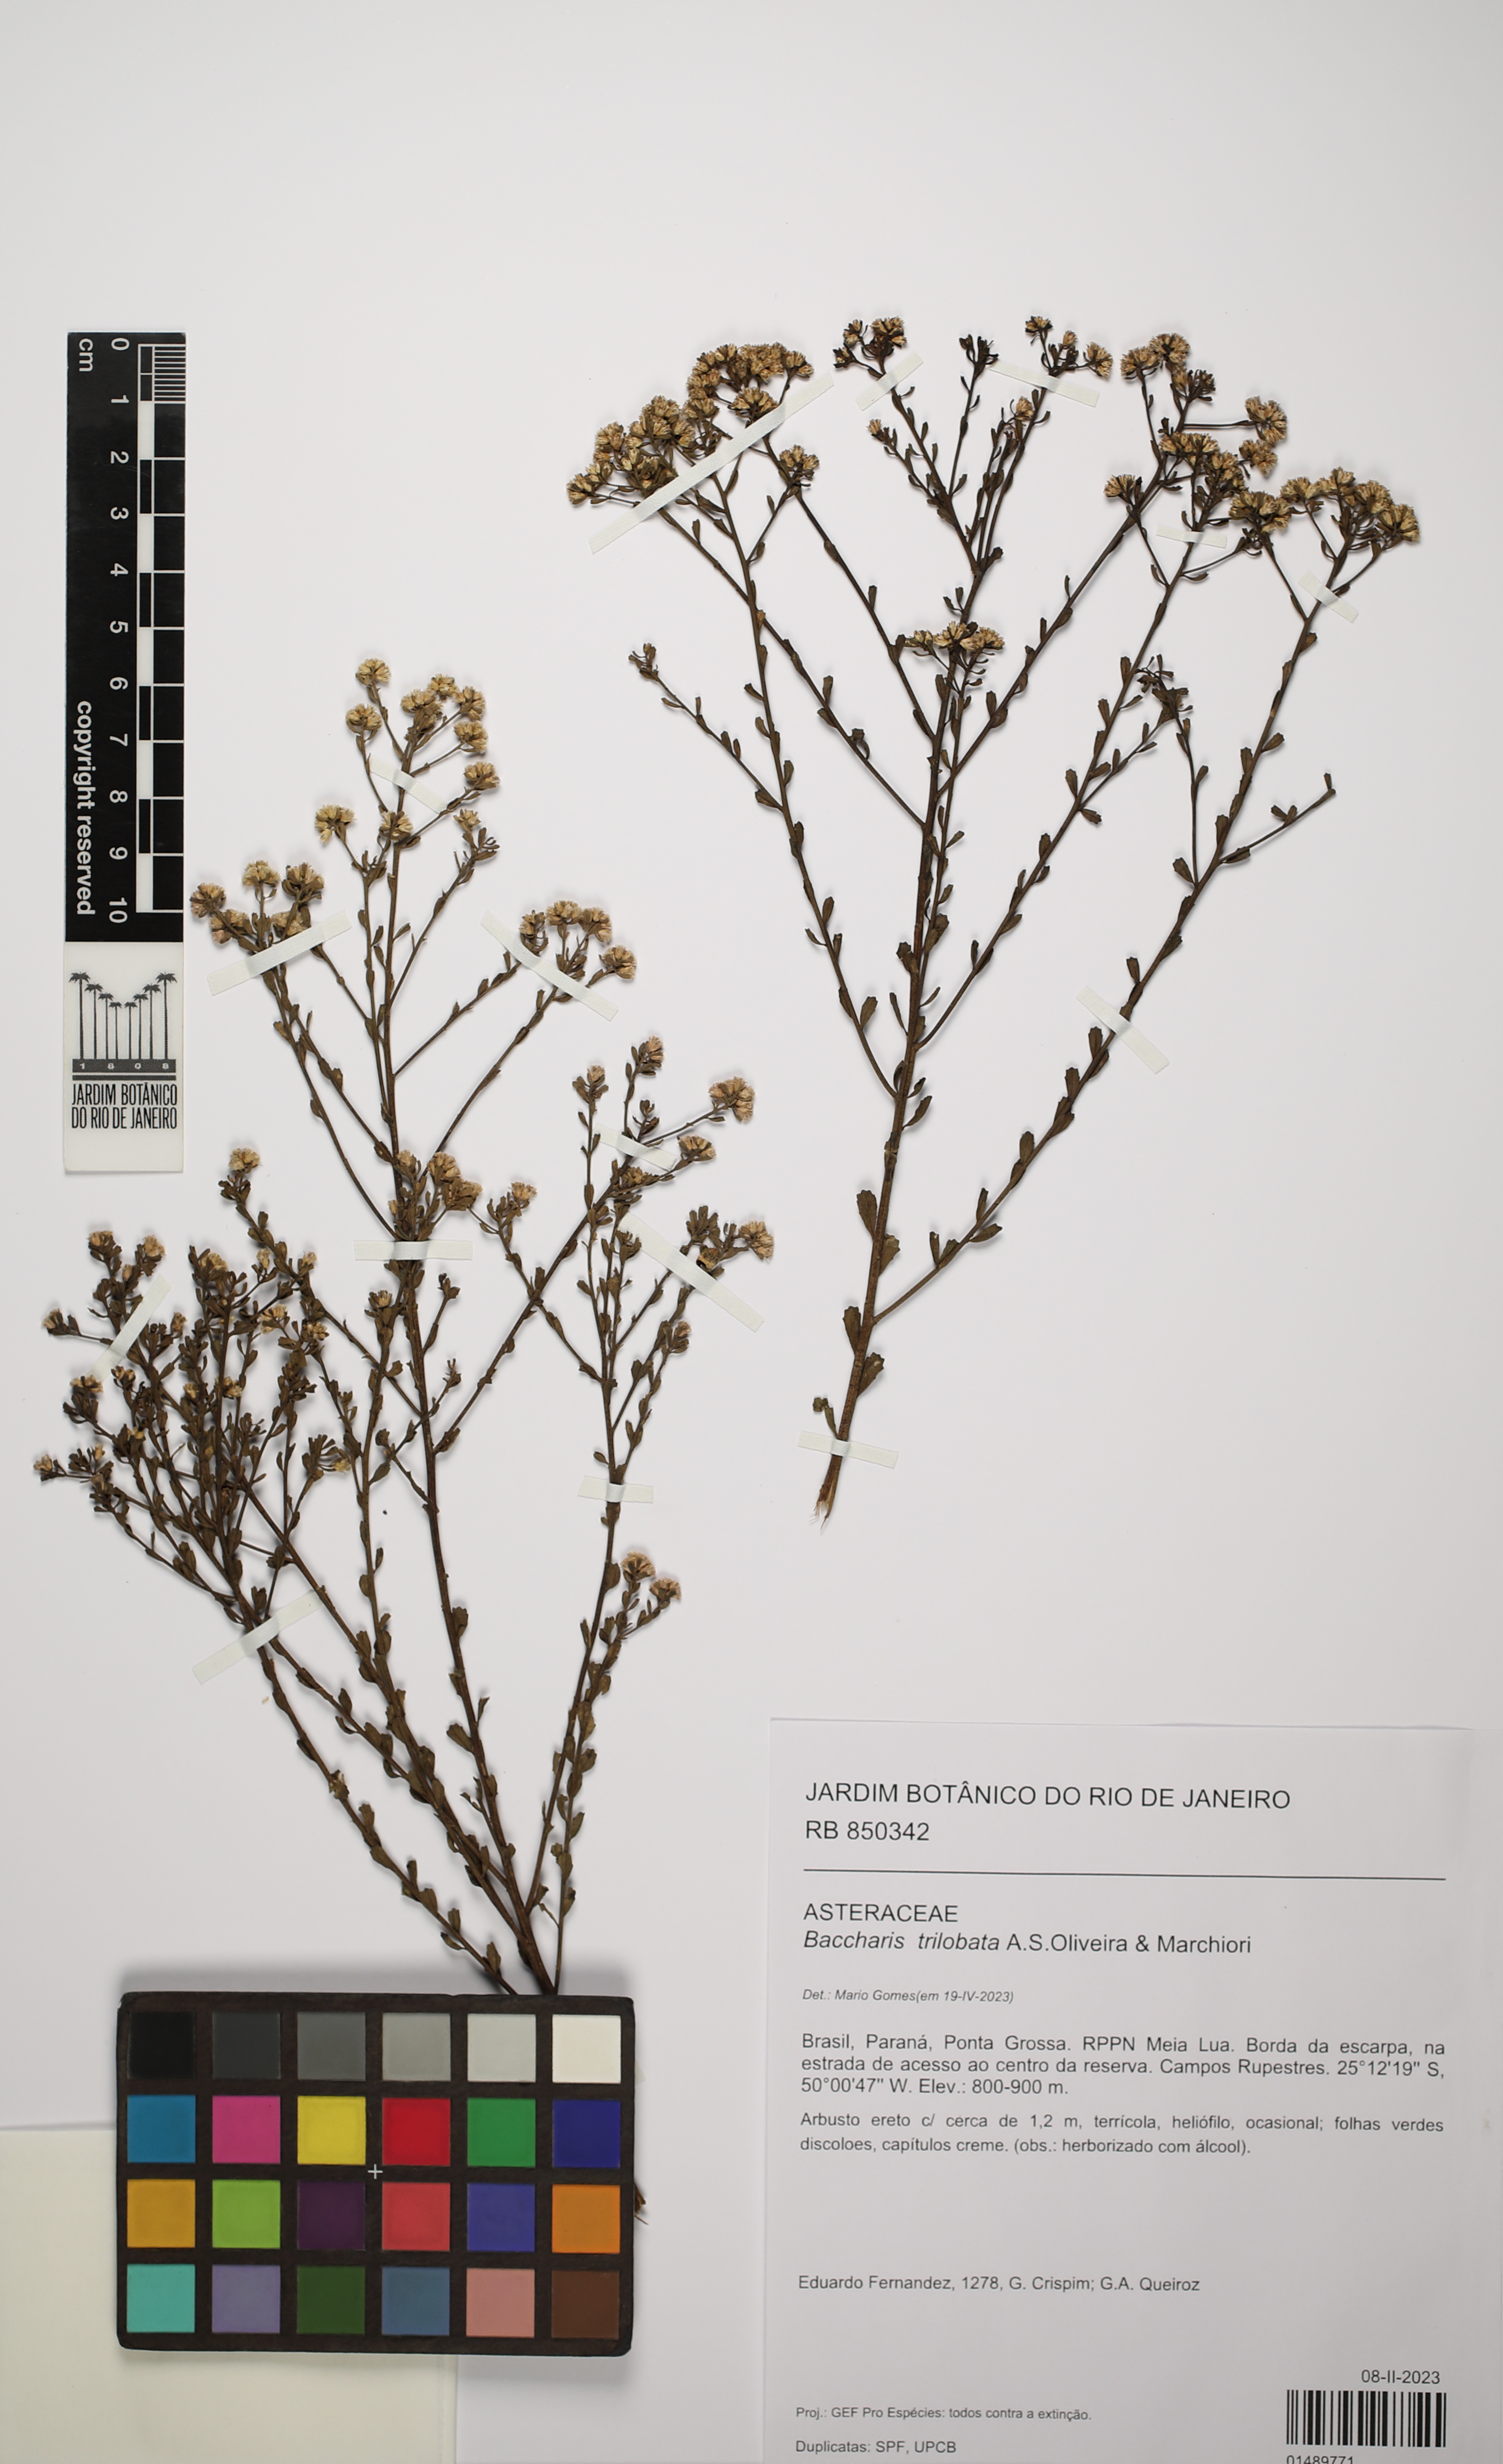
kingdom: Plantae
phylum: Tracheophyta
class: Magnoliopsida
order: Asterales
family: Asteraceae
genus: Baccharis
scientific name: Baccharis trilobata
